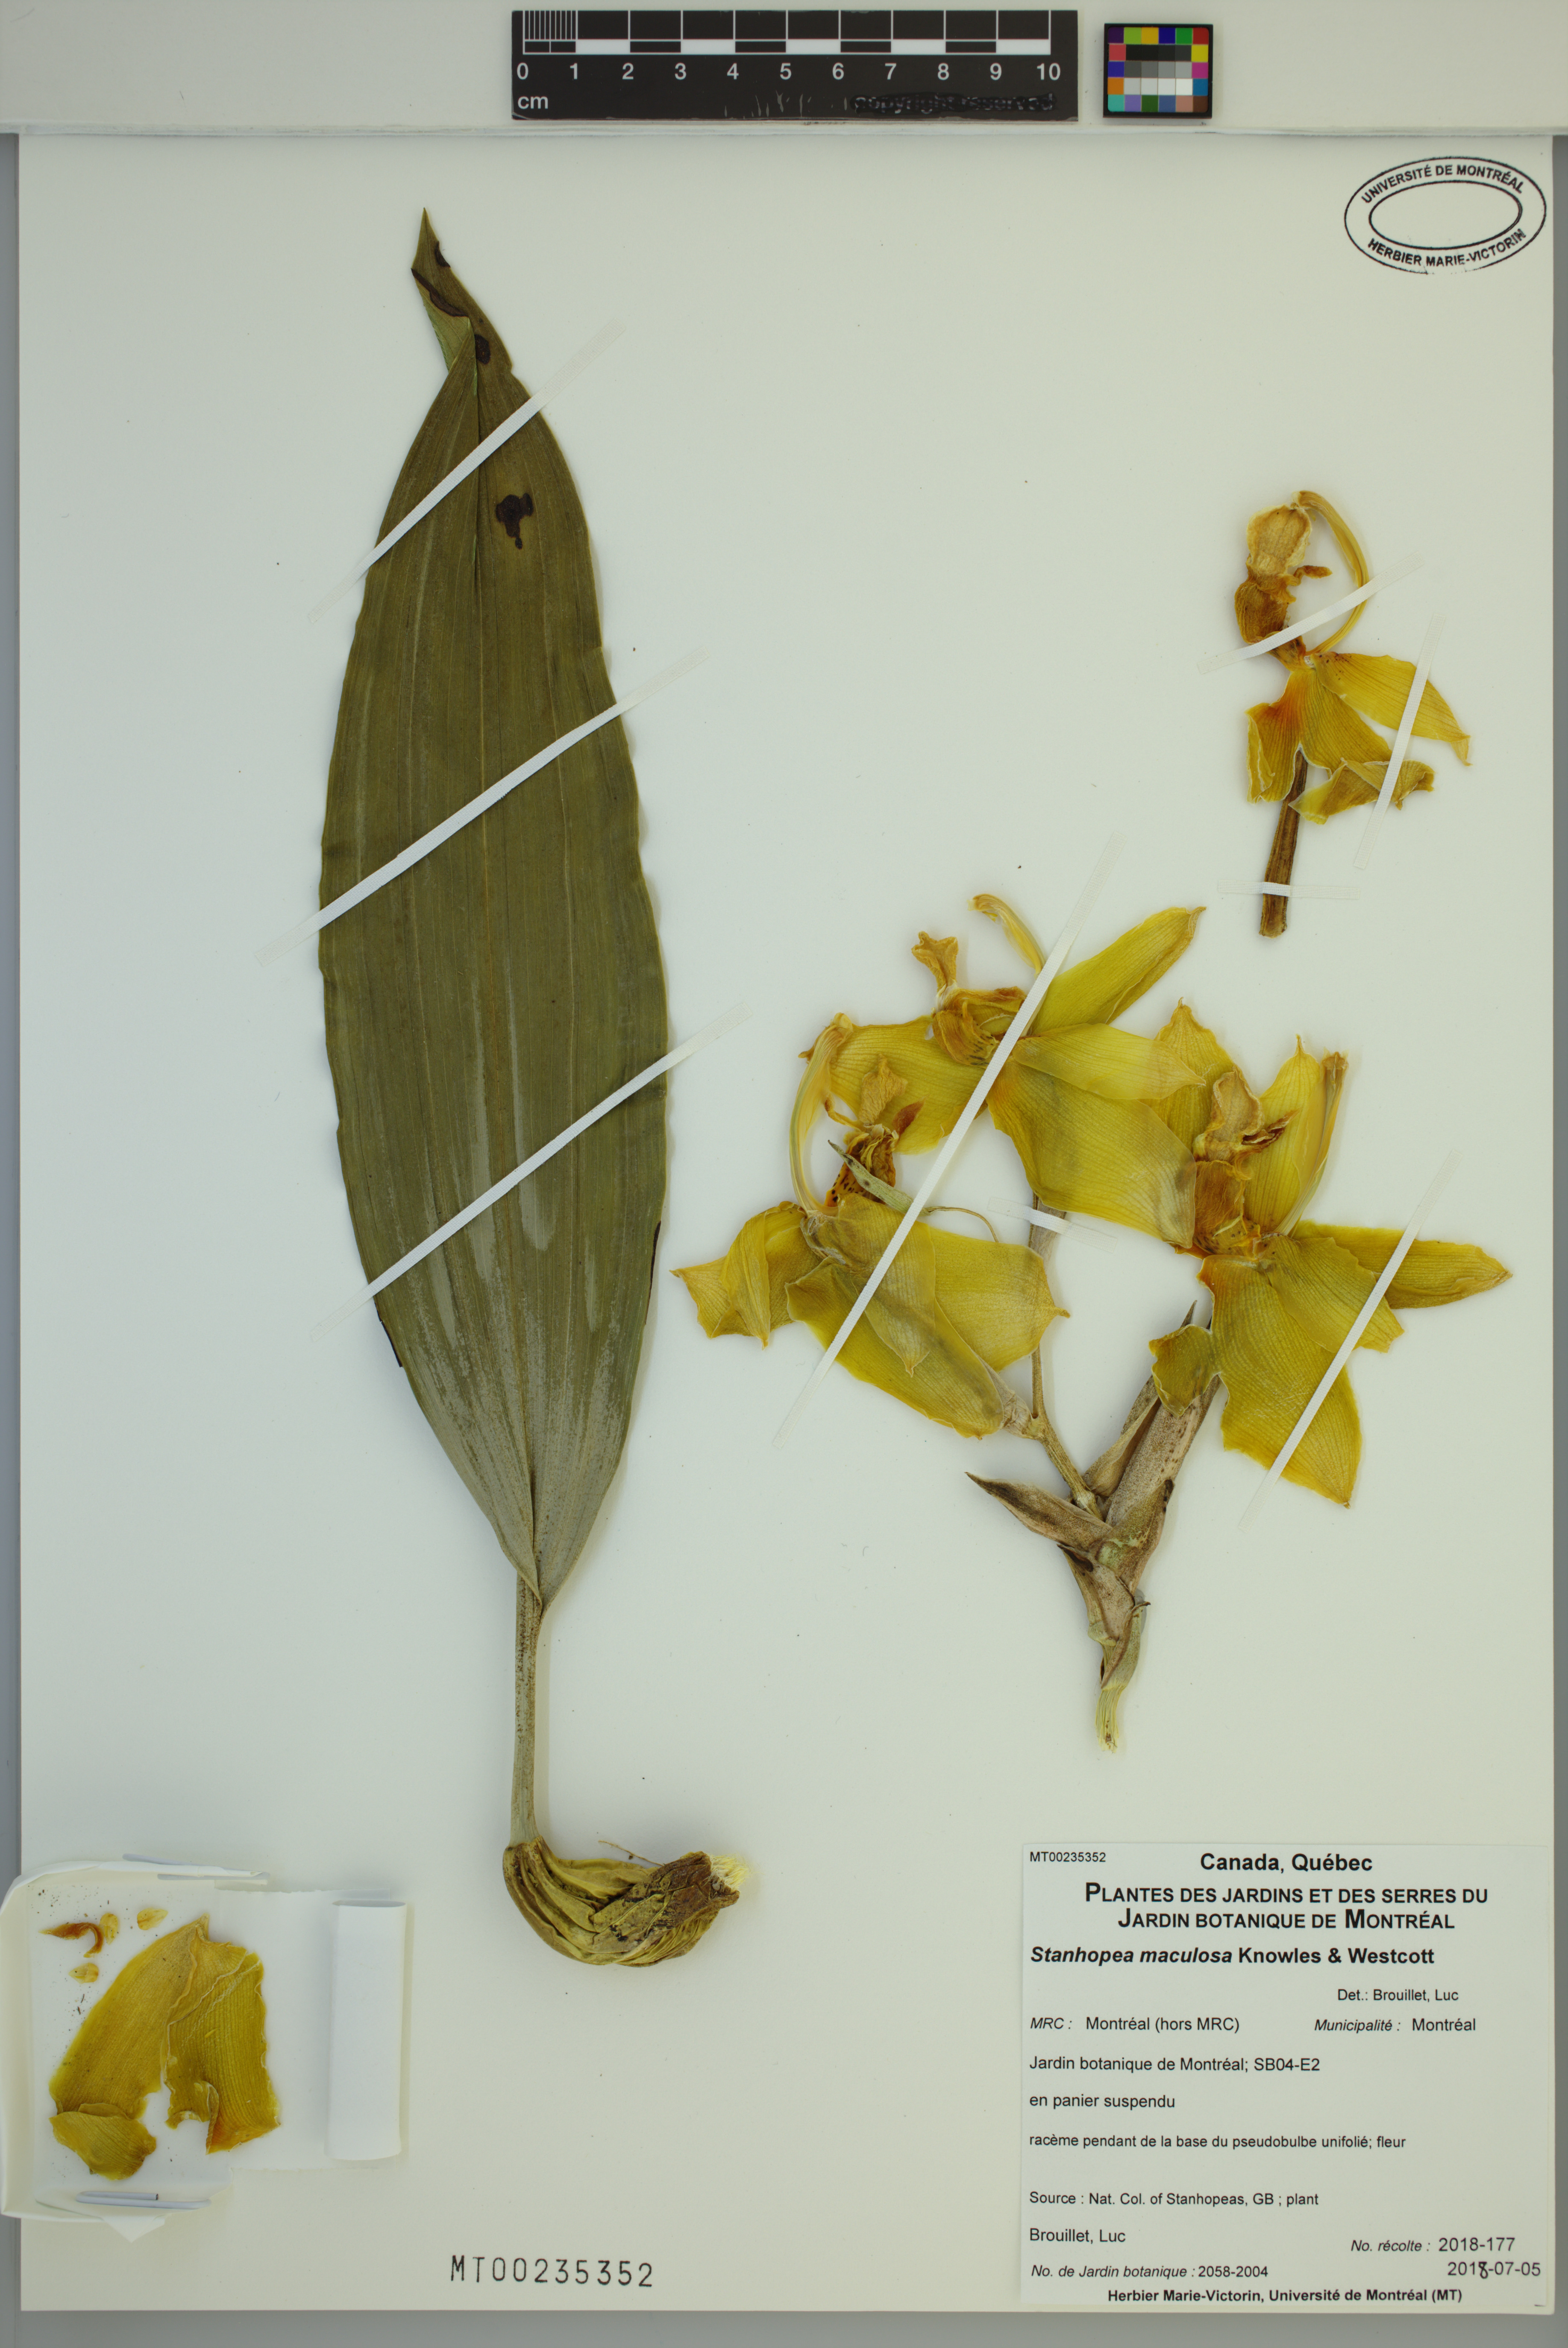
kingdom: Plantae
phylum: Tracheophyta
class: Liliopsida
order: Asparagales
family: Orchidaceae
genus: Stanhopea
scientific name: Stanhopea maculosa
